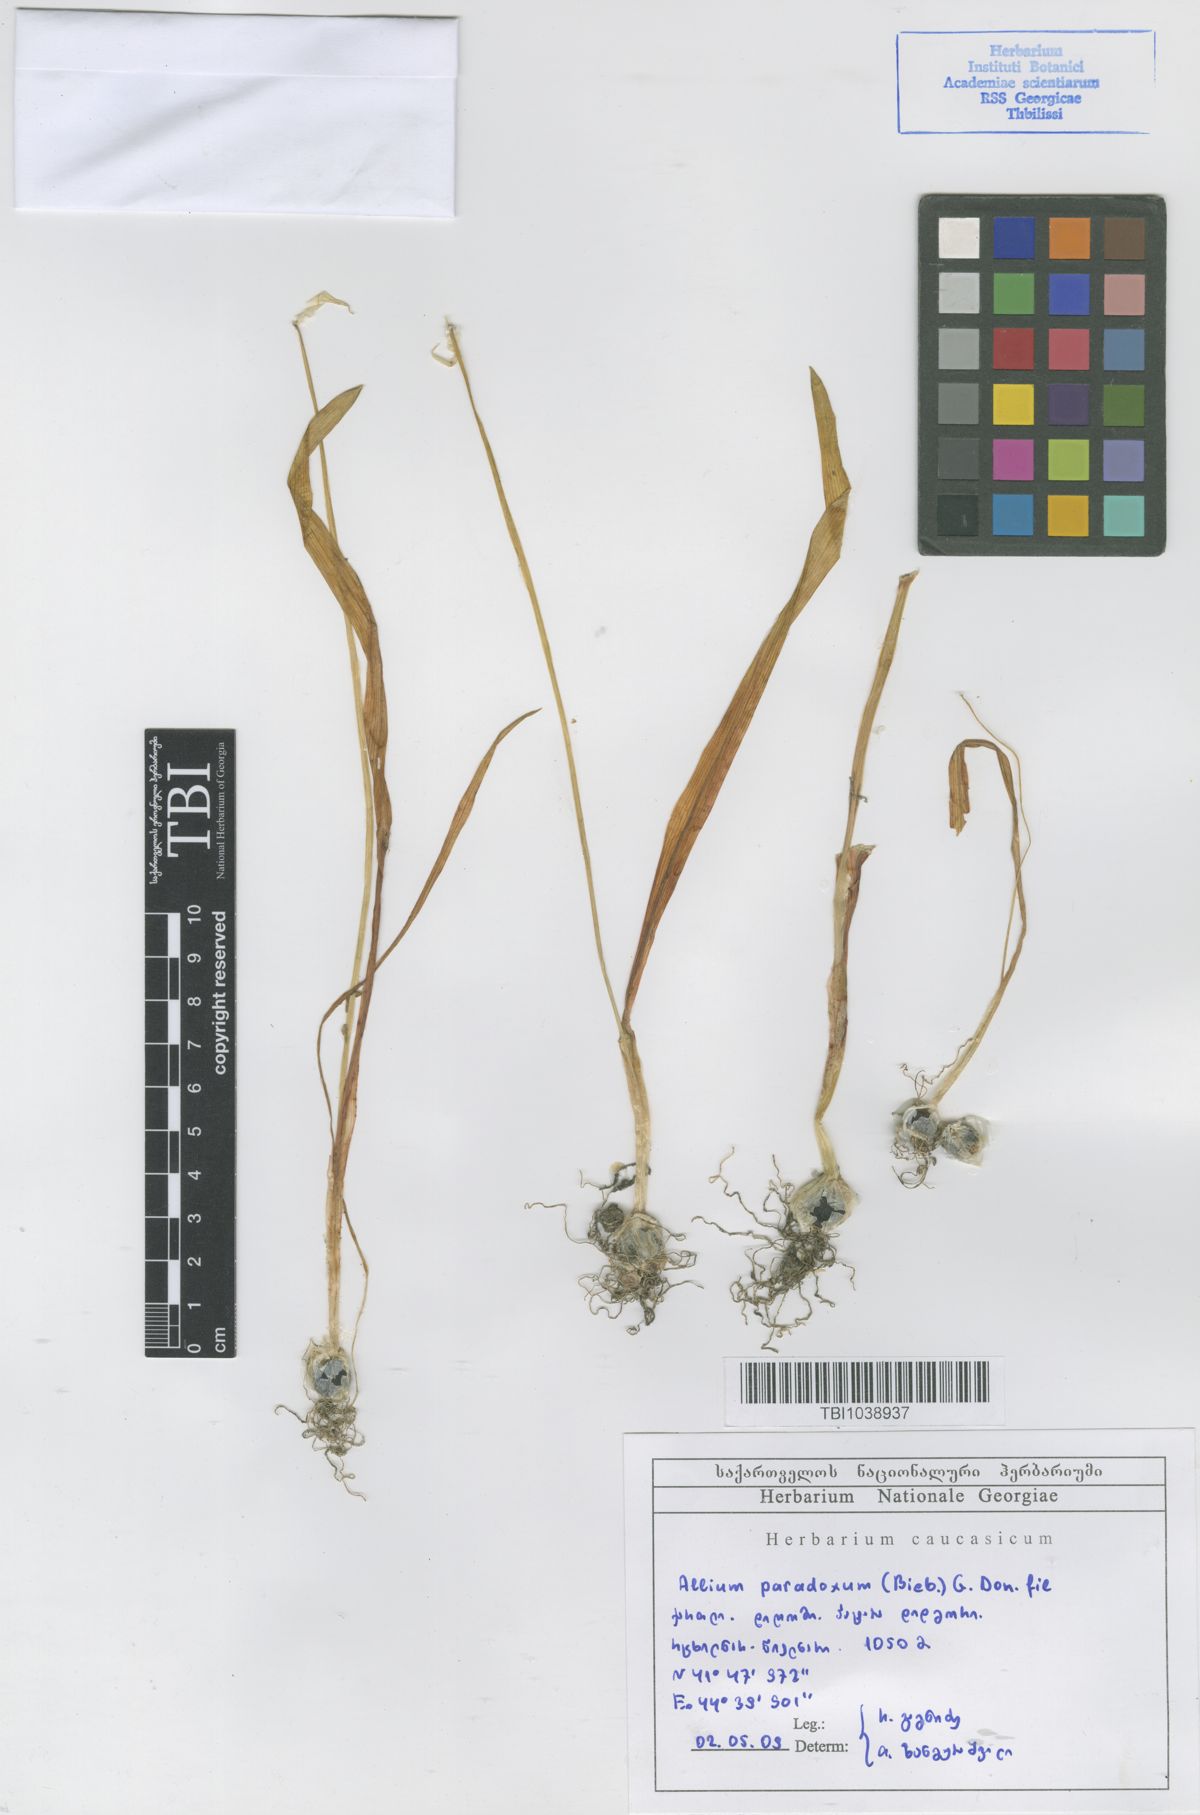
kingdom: Plantae
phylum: Tracheophyta
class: Liliopsida
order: Asparagales
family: Amaryllidaceae
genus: Allium
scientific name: Allium paradoxum
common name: Few-flowered garlic
